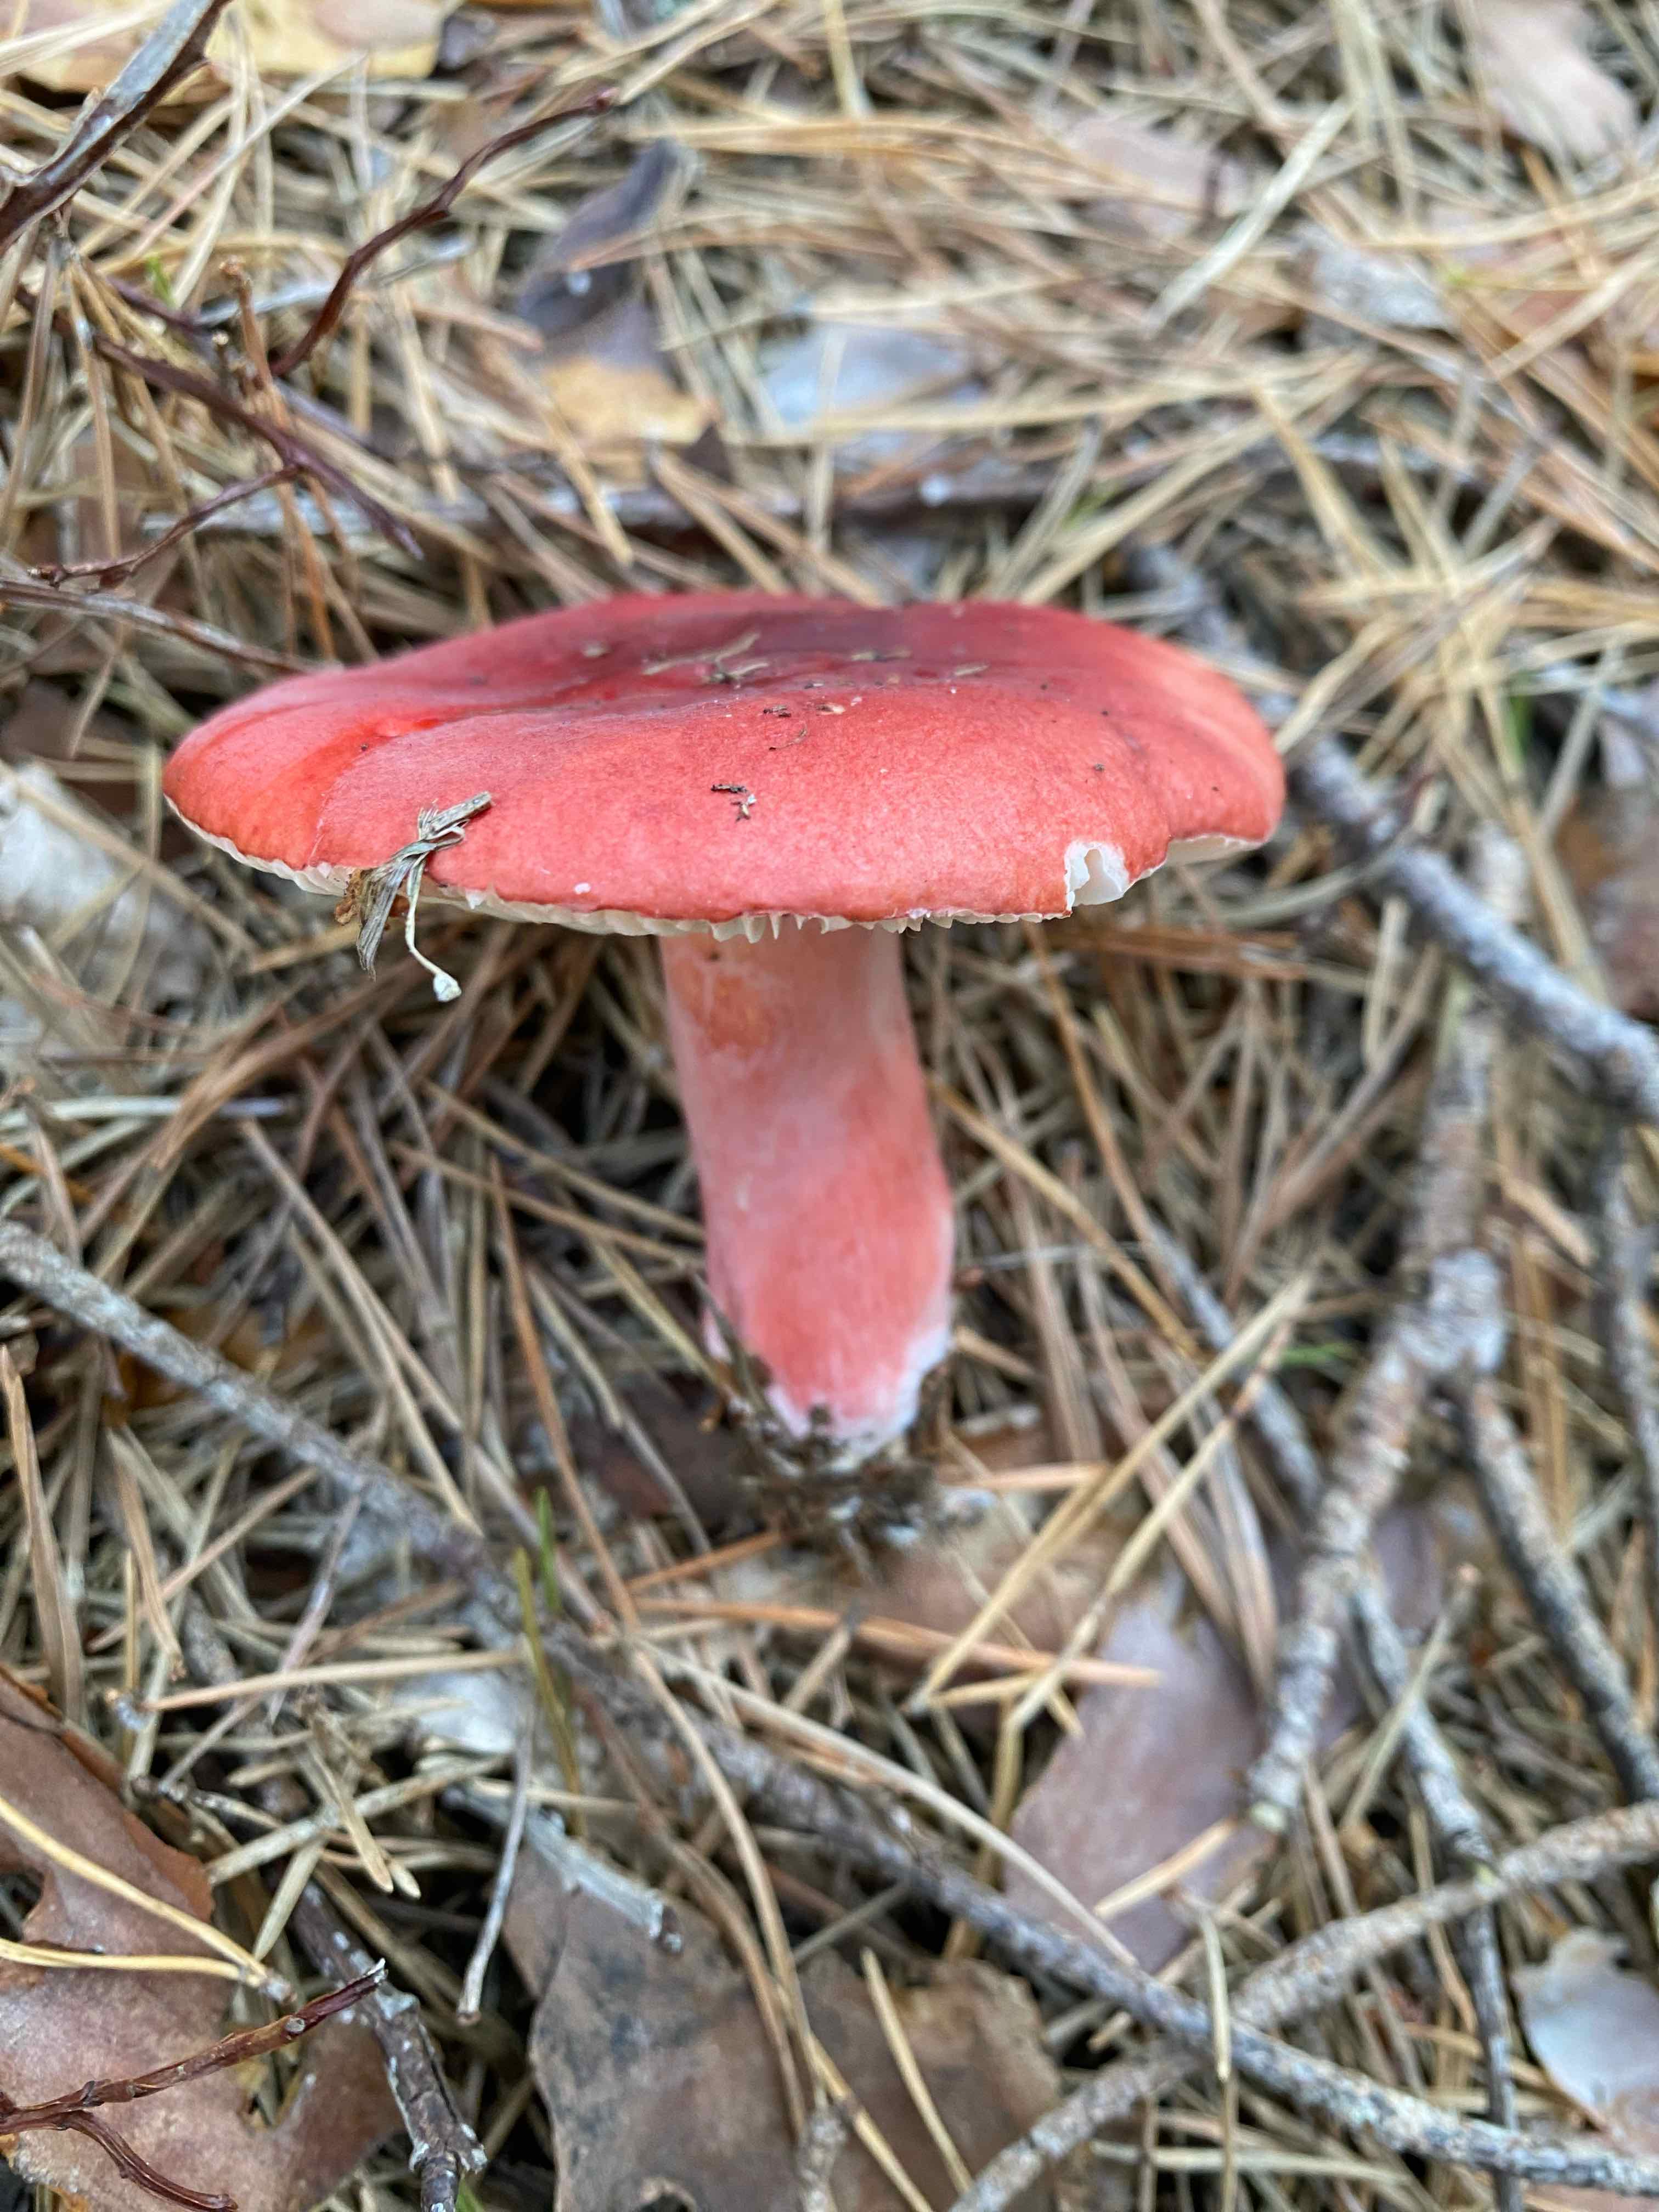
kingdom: Fungi
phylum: Basidiomycota
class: Agaricomycetes
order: Russulales
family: Russulaceae
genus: Russula
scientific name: Russula sanguinea
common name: blodrød skørhat
